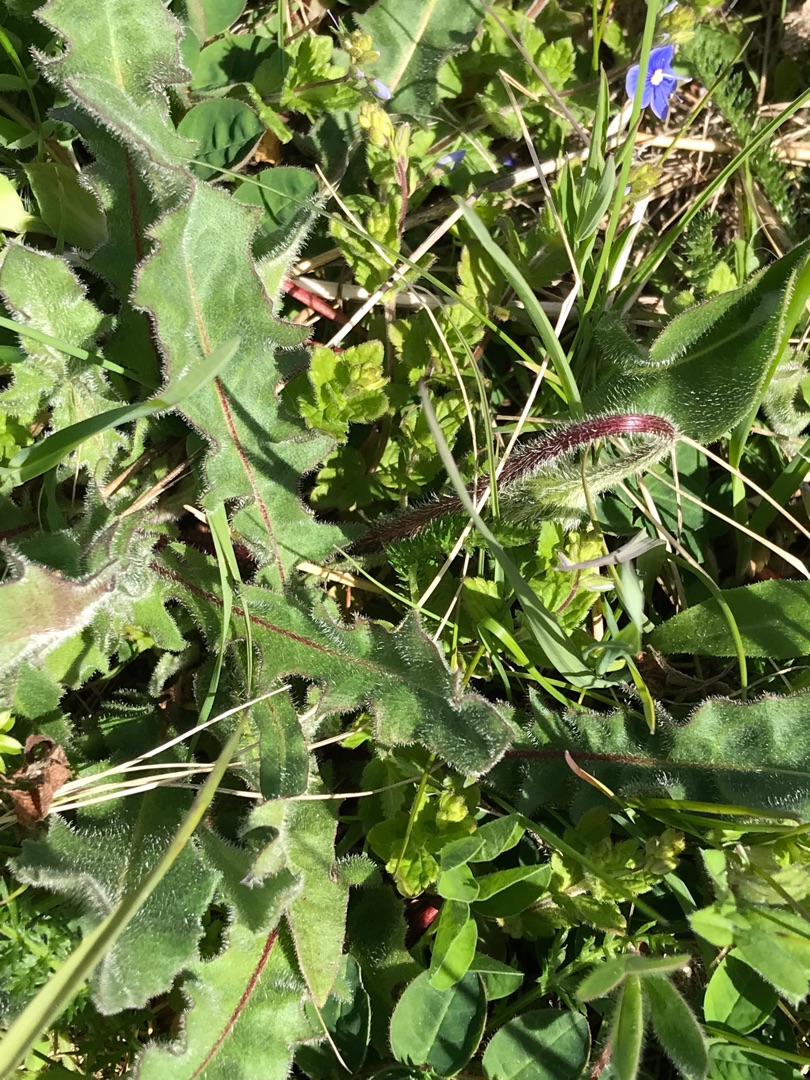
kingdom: Plantae
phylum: Tracheophyta
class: Magnoliopsida
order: Asterales
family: Asteraceae
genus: Leontodon
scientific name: Leontodon hispidus
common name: Stivhåret borst
